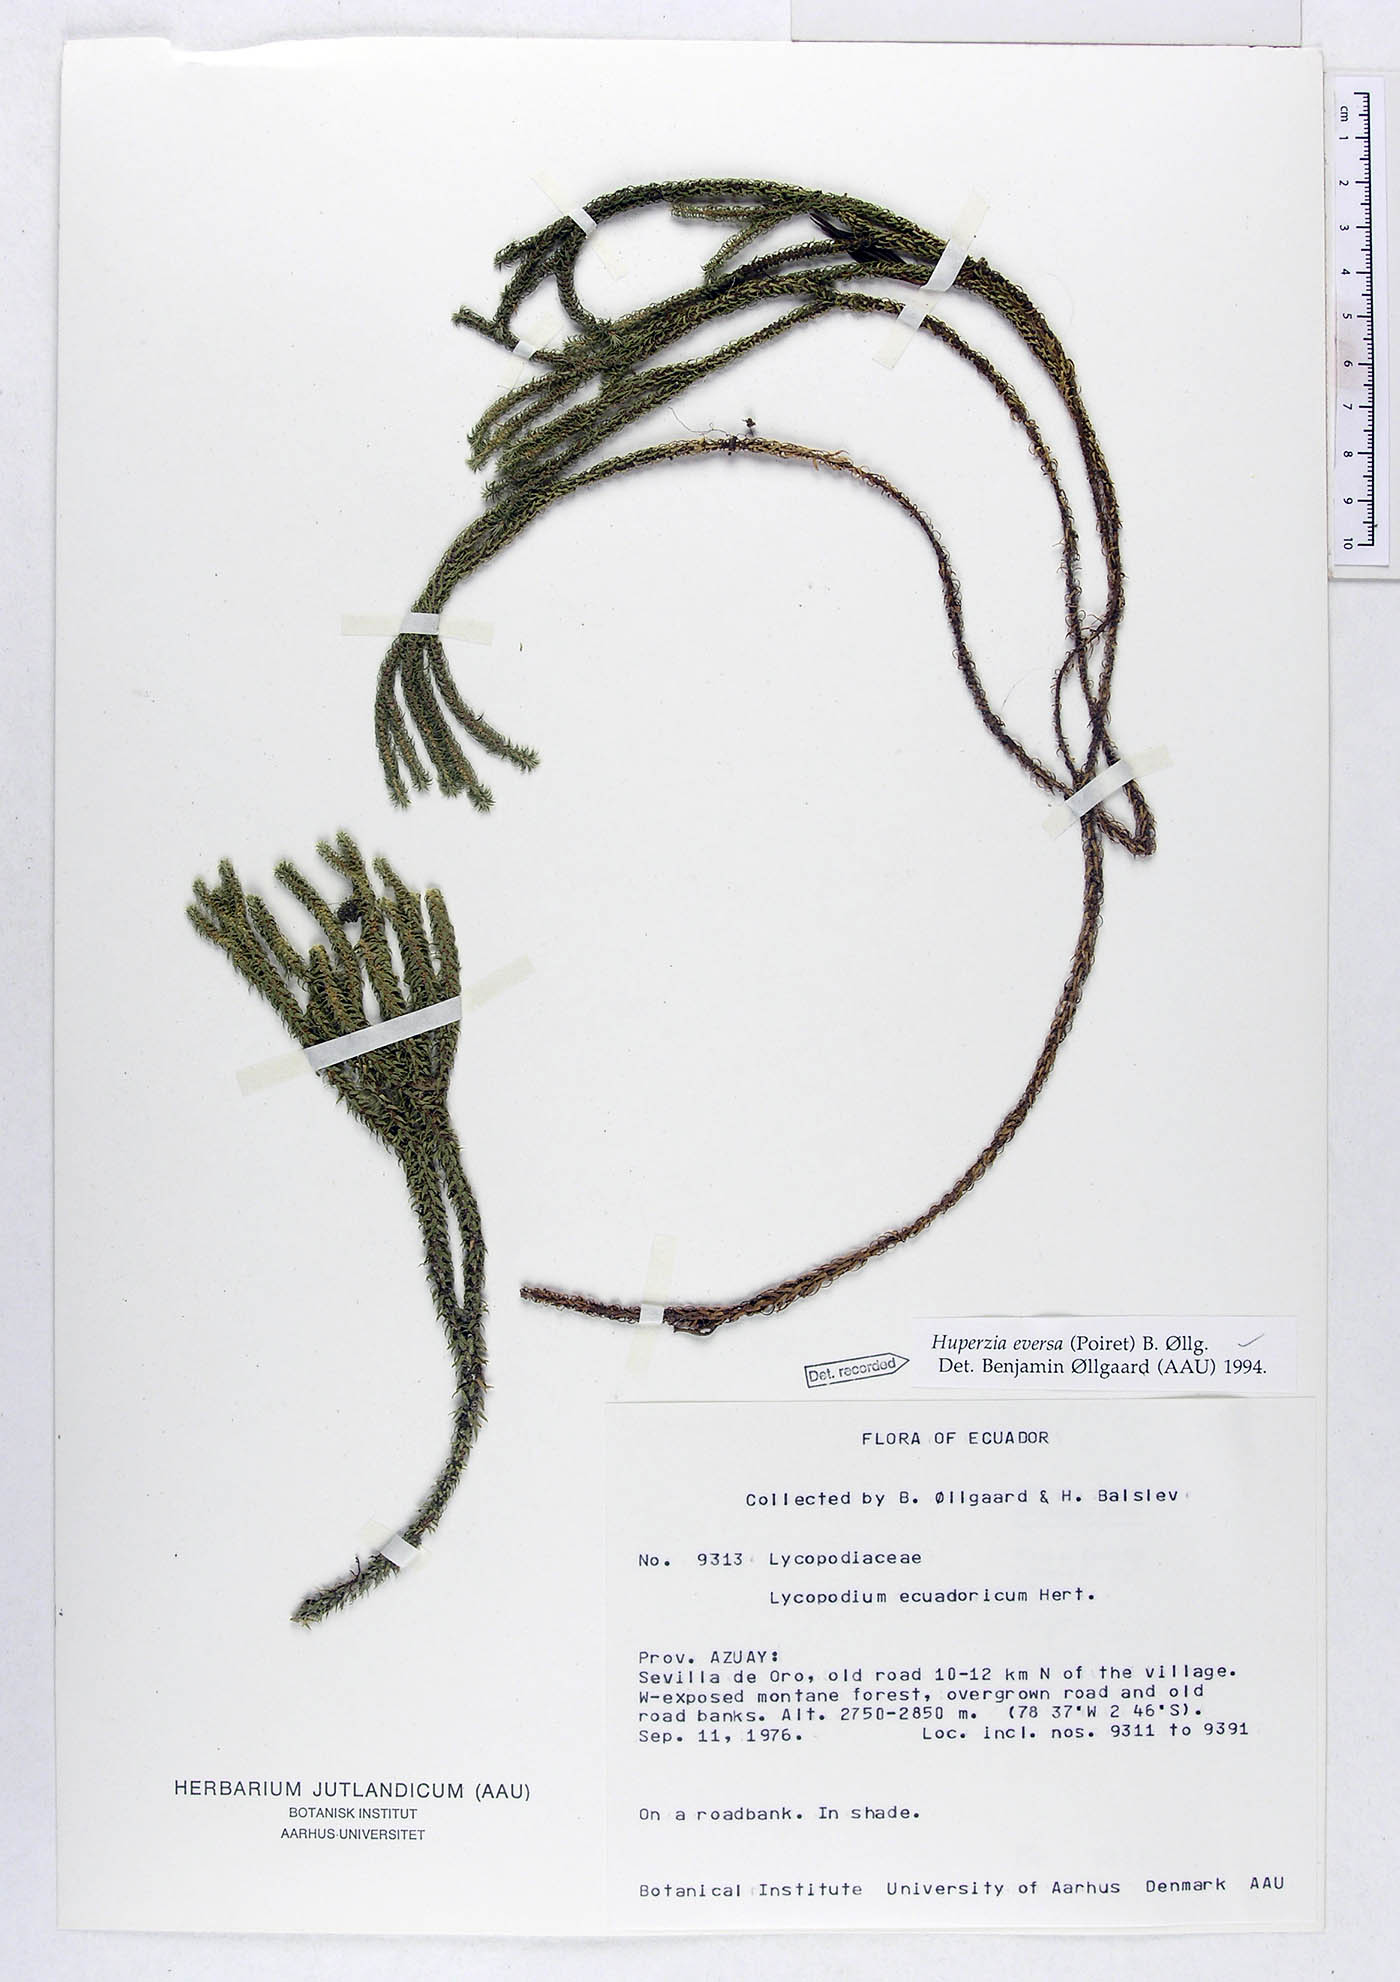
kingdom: Plantae
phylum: Tracheophyta
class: Lycopodiopsida
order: Lycopodiales
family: Lycopodiaceae
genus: Phlegmariurus
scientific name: Phlegmariurus eversus
